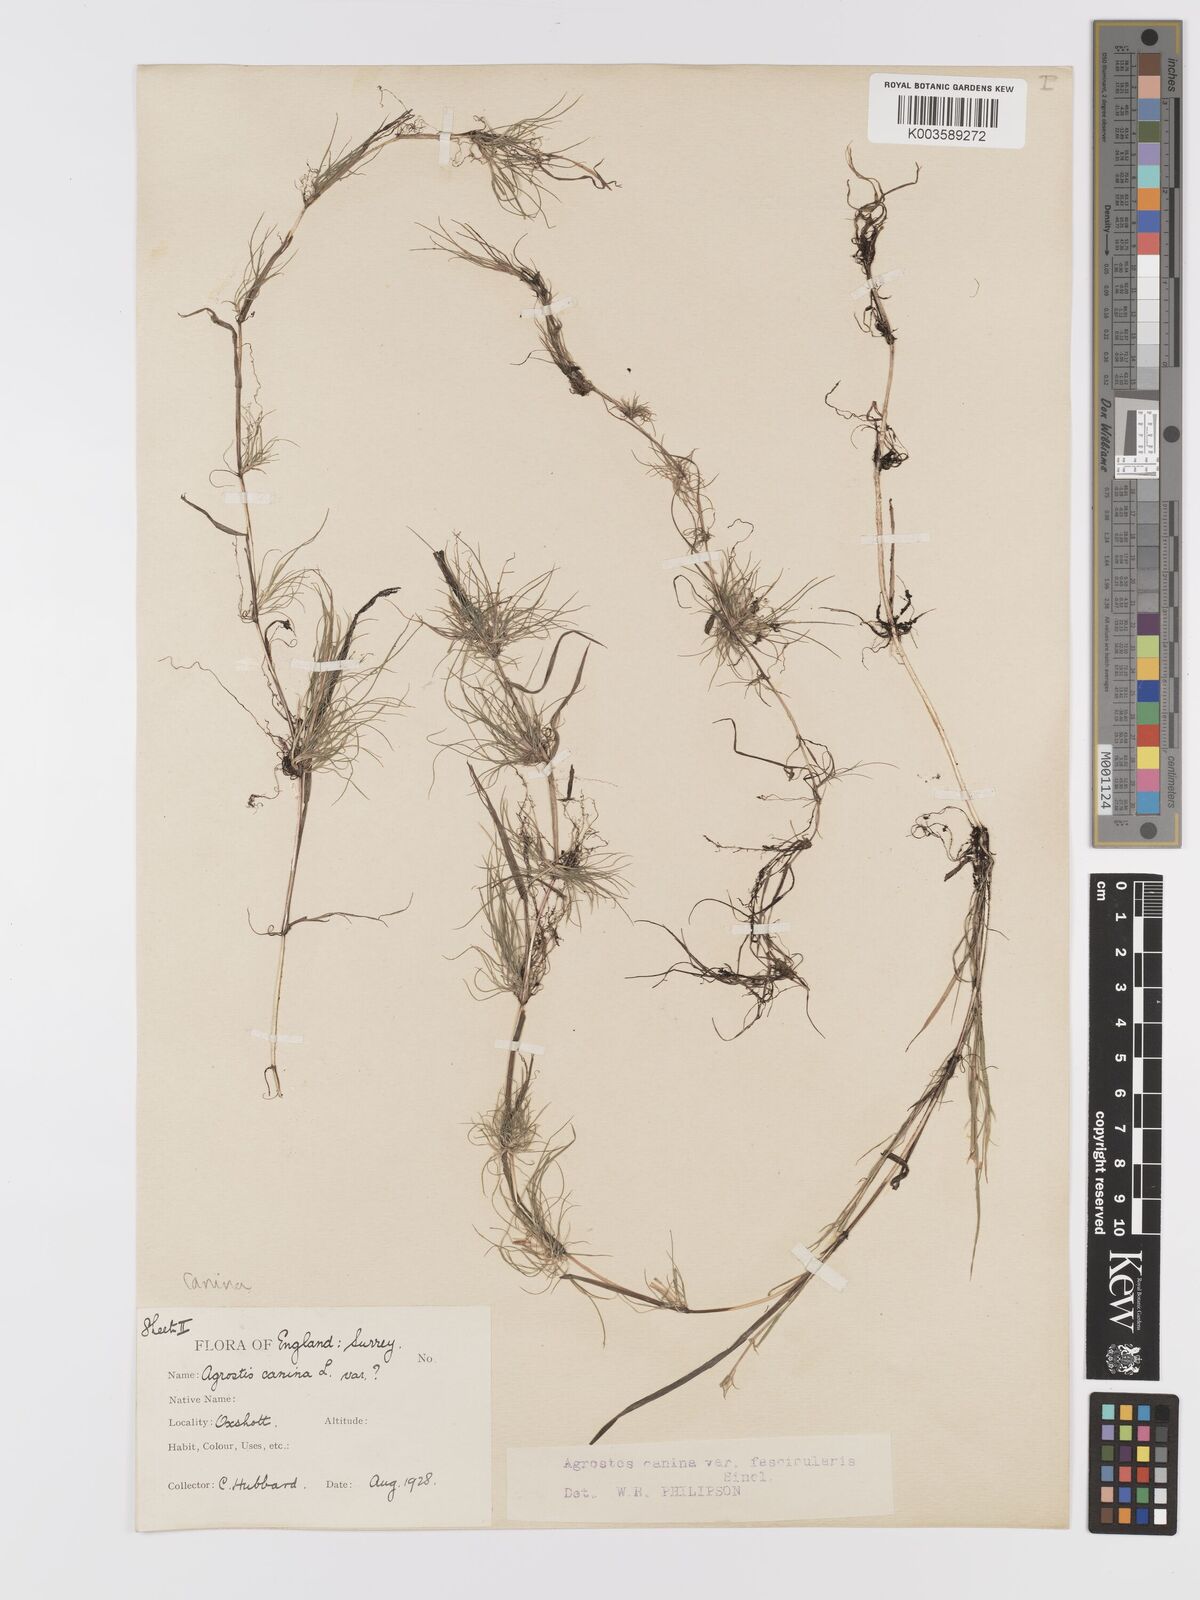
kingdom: Plantae
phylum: Tracheophyta
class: Liliopsida
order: Poales
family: Poaceae
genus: Agrostis
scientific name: Agrostis canina
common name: Velvet bent
